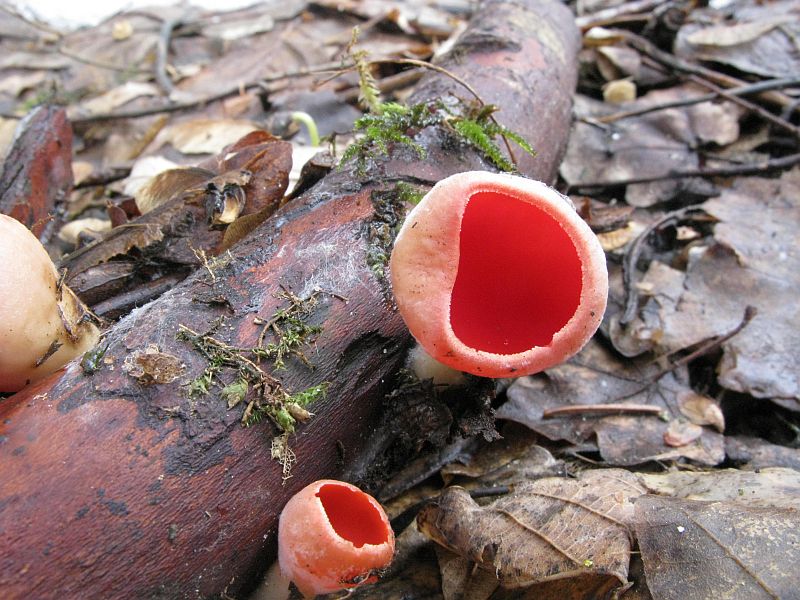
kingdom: Fungi
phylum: Ascomycota
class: Pezizomycetes
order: Pezizales
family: Sarcoscyphaceae
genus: Sarcoscypha
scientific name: Sarcoscypha austriaca
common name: krølhåret pragtbæger
